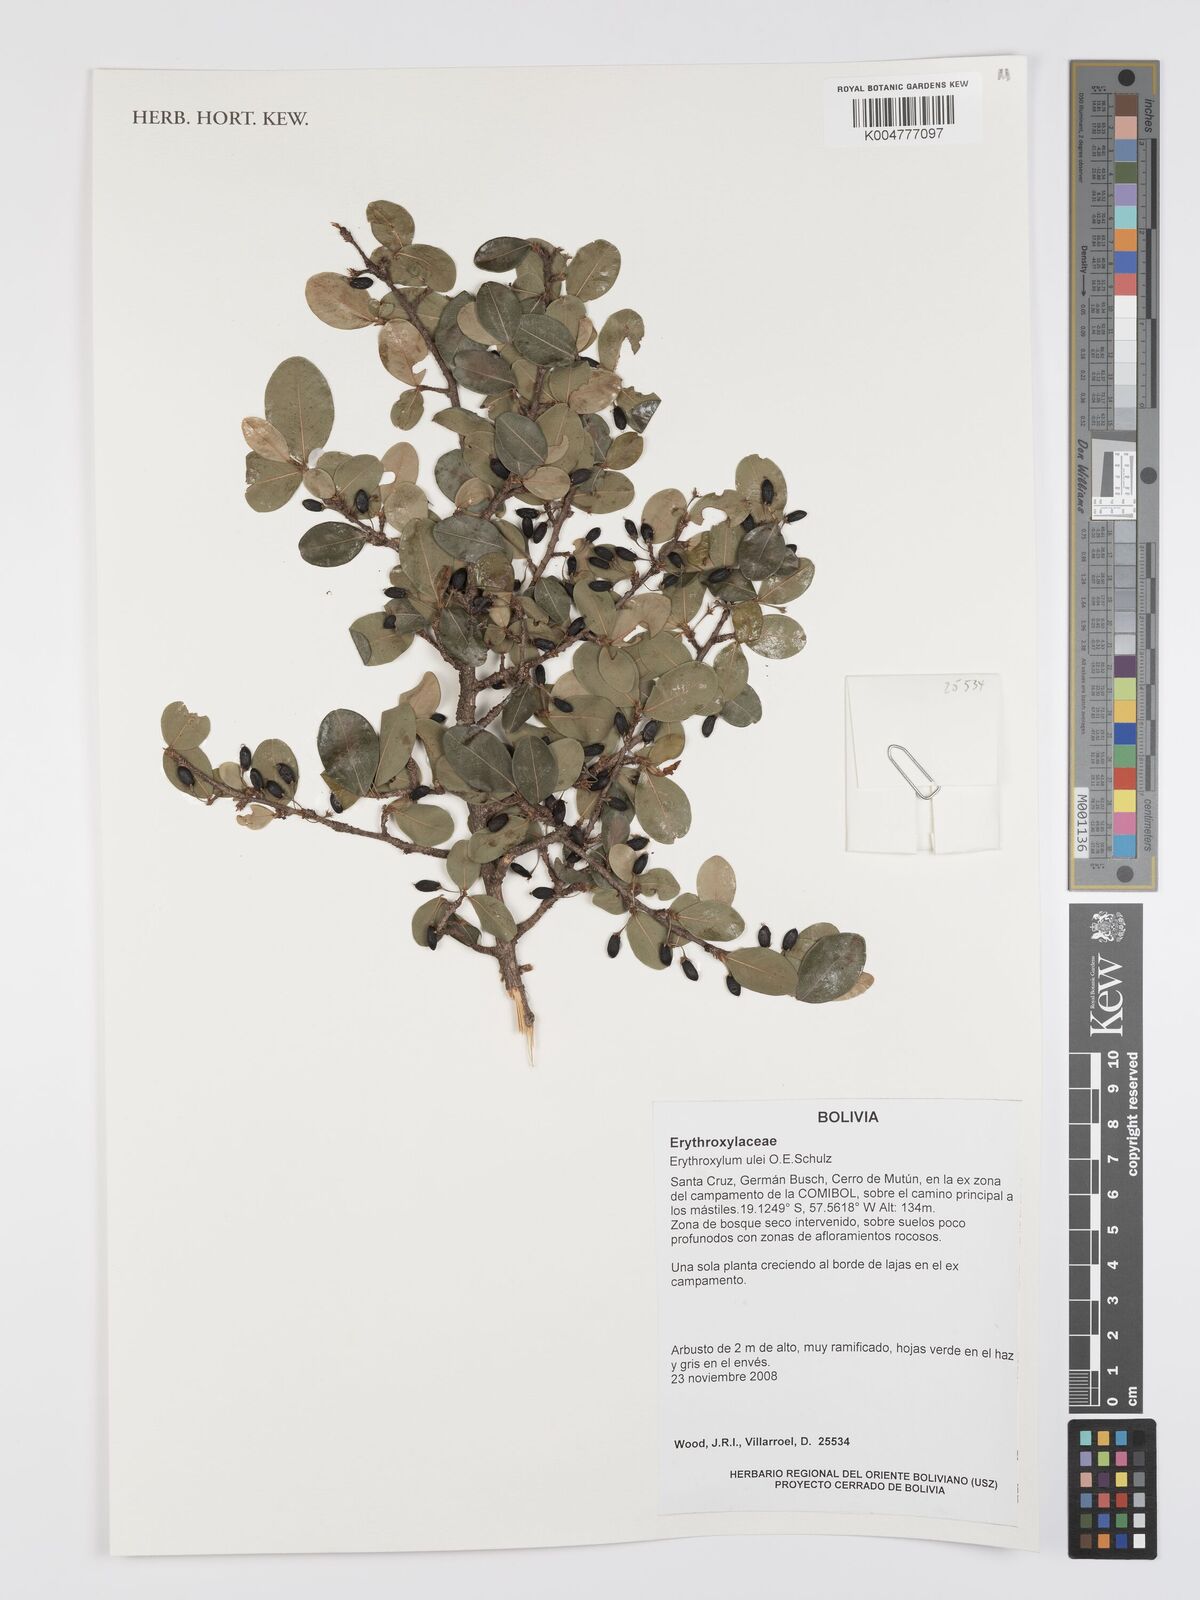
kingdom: Plantae
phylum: Tracheophyta
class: Magnoliopsida
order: Malpighiales
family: Erythroxylaceae
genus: Erythroxylum
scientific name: Erythroxylum ulei
